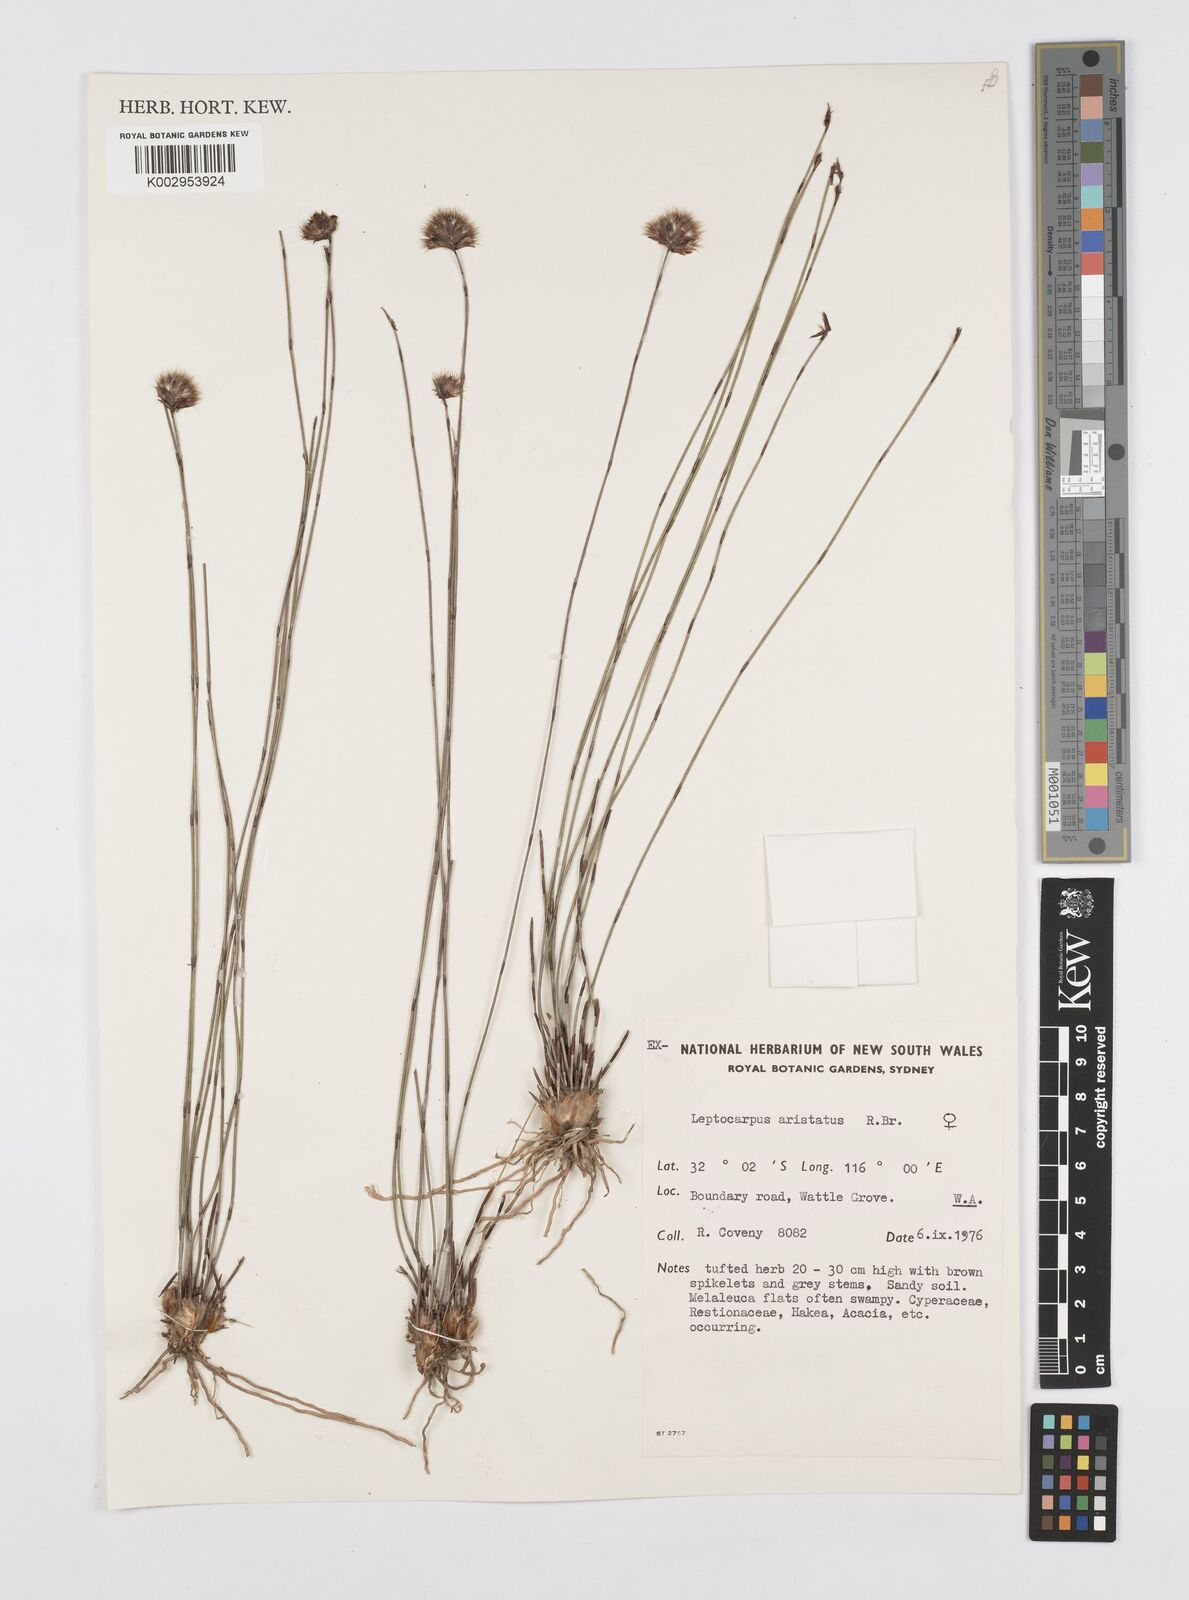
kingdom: Plantae
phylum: Tracheophyta
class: Liliopsida
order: Poales
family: Restionaceae
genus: Chaetanthus
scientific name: Chaetanthus aristatus
